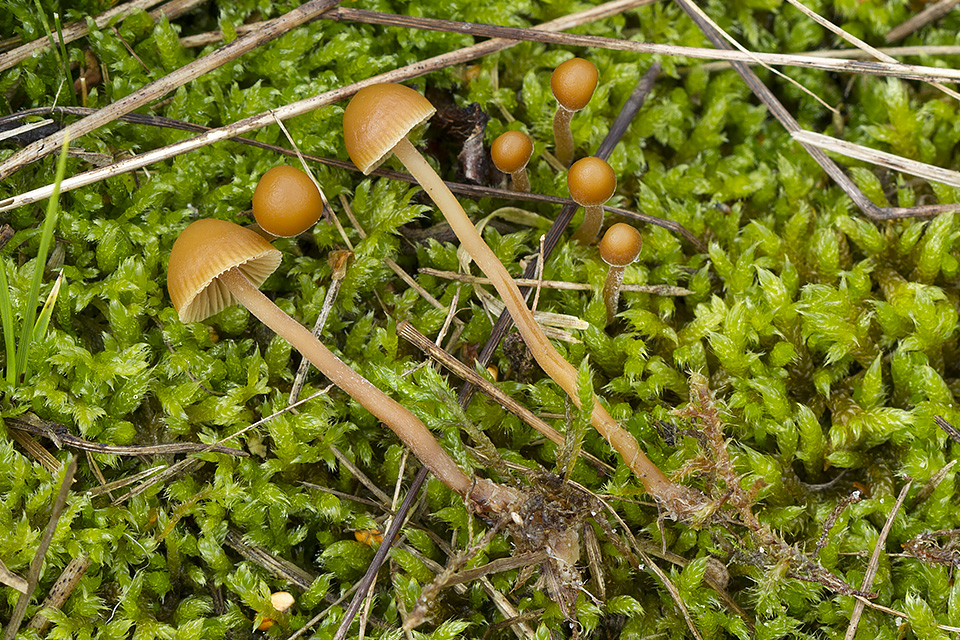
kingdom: Fungi
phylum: Basidiomycota
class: Agaricomycetes
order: Agaricales
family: Hymenogastraceae
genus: Galerina
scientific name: Galerina vittiformis
